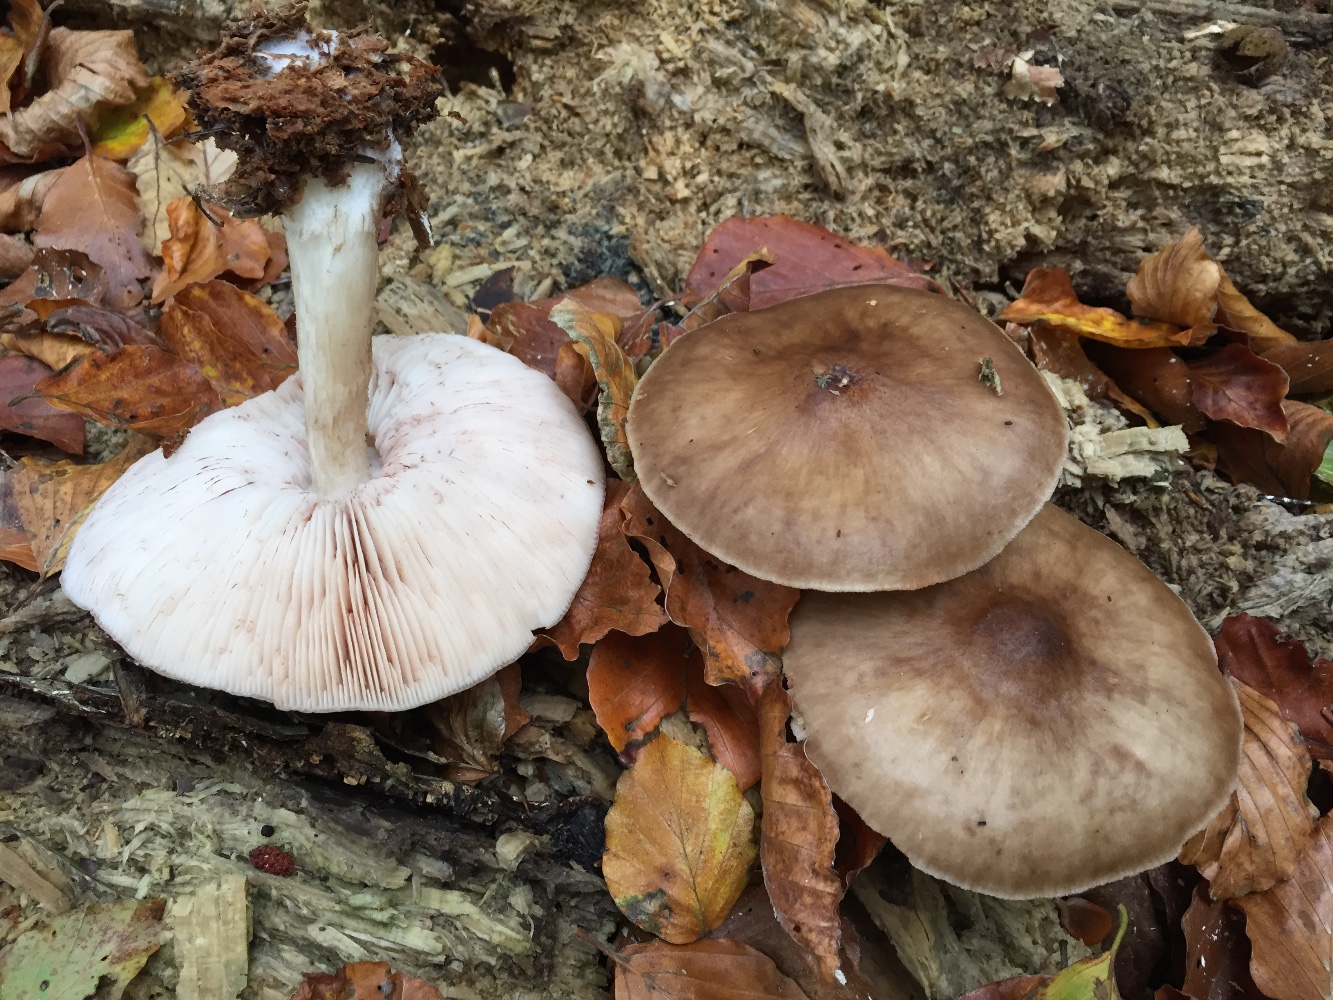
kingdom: Fungi
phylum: Basidiomycota
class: Agaricomycetes
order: Agaricales
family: Pluteaceae
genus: Pluteus
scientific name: Pluteus cervinus
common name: sodfarvet skærmhat
